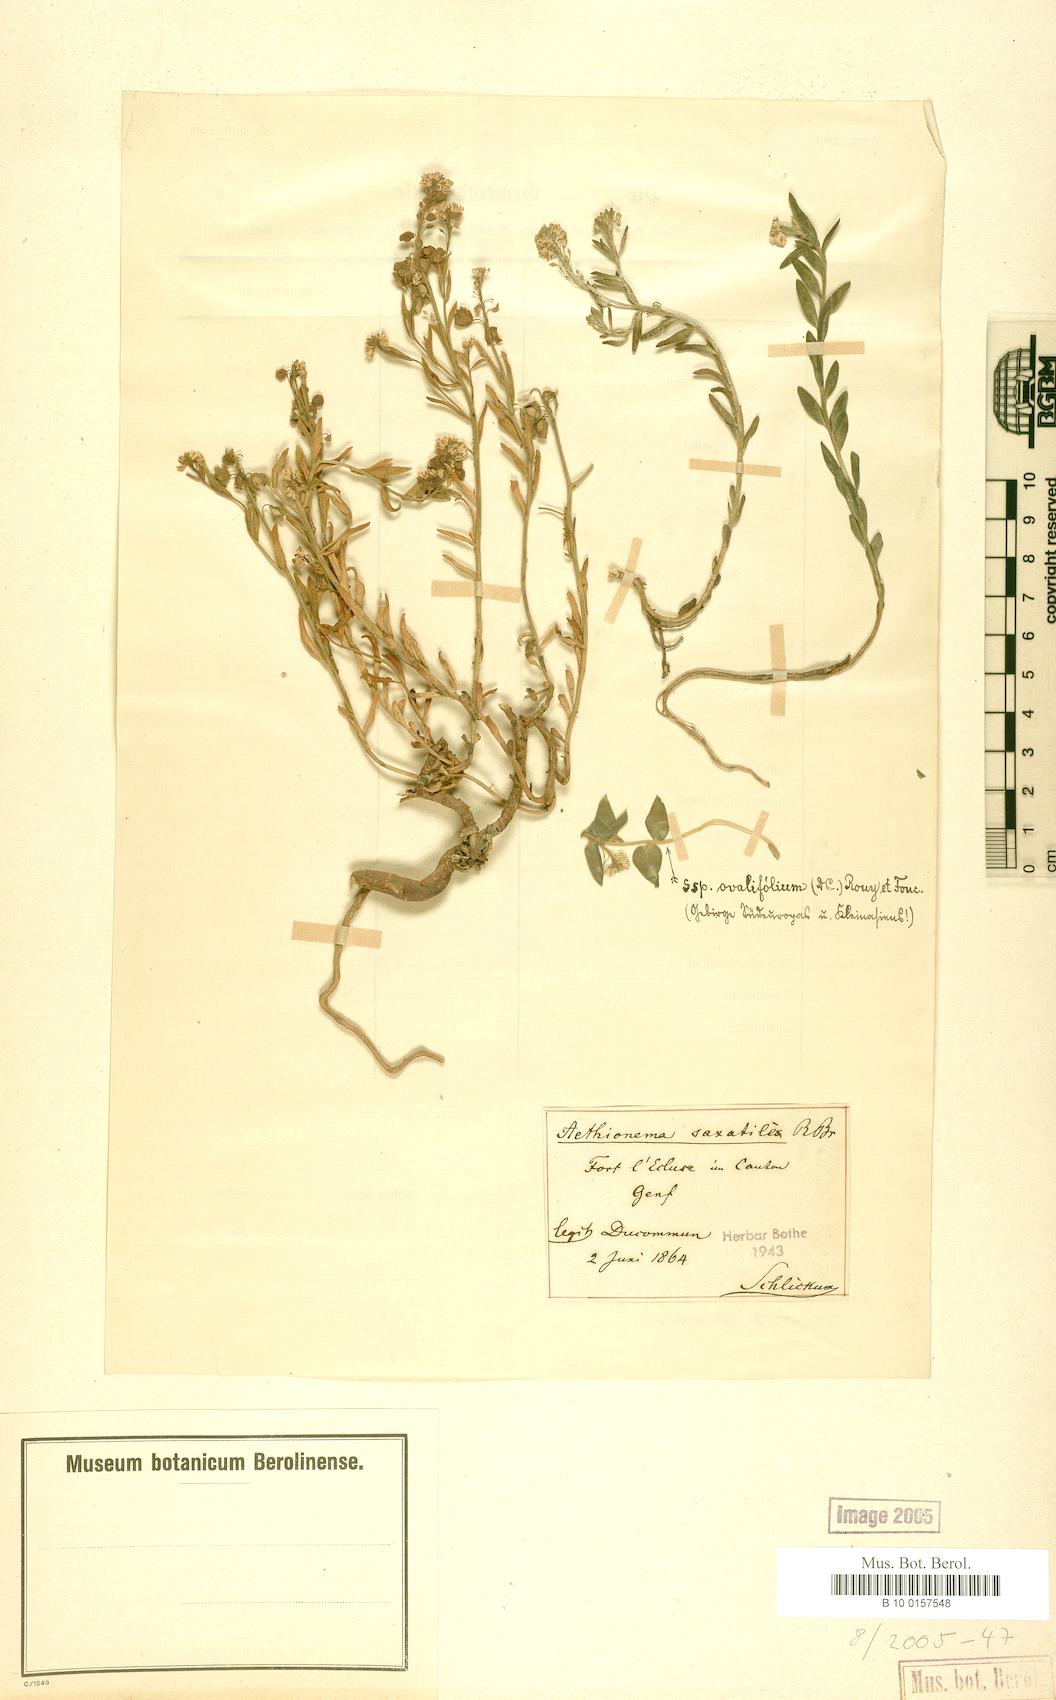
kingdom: Plantae
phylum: Tracheophyta
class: Magnoliopsida
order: Brassicales
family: Brassicaceae
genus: Aethionema
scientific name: Aethionema saxatile
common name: Burnt candytuft
